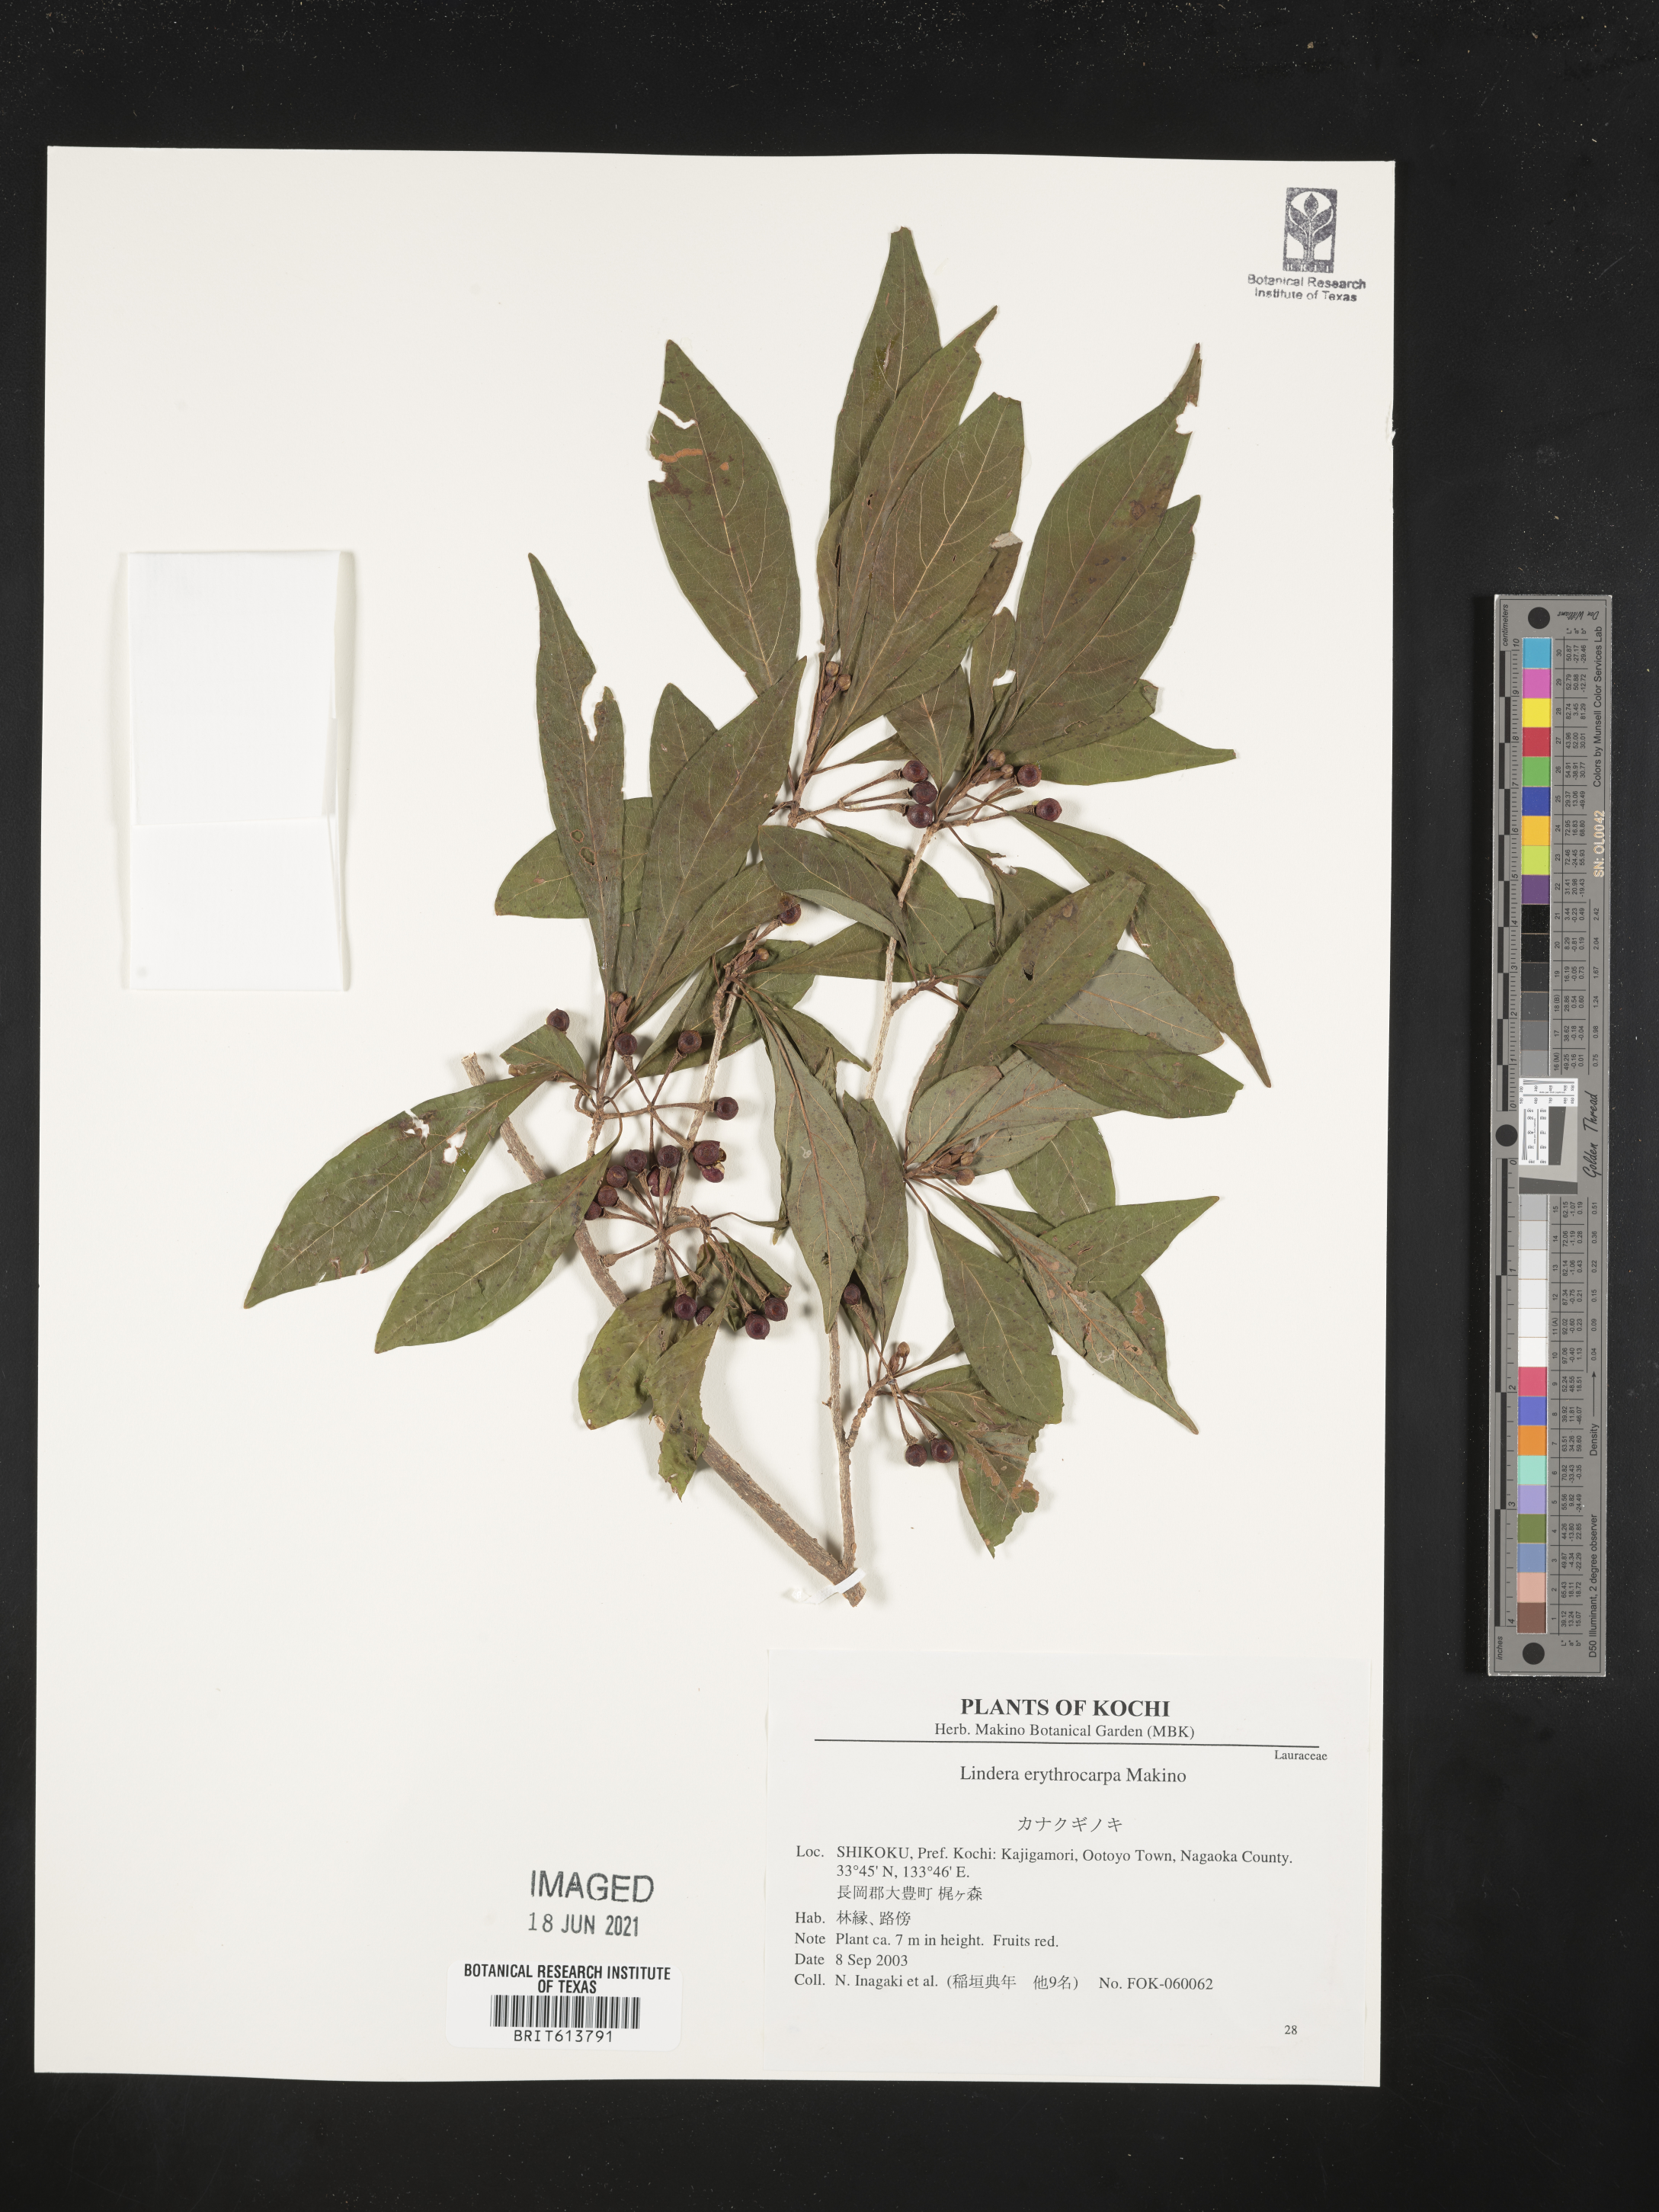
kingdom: Plantae
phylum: Tracheophyta
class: Magnoliopsida
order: Laurales
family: Lauraceae
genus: Lindera
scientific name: Lindera erythrocarpa
